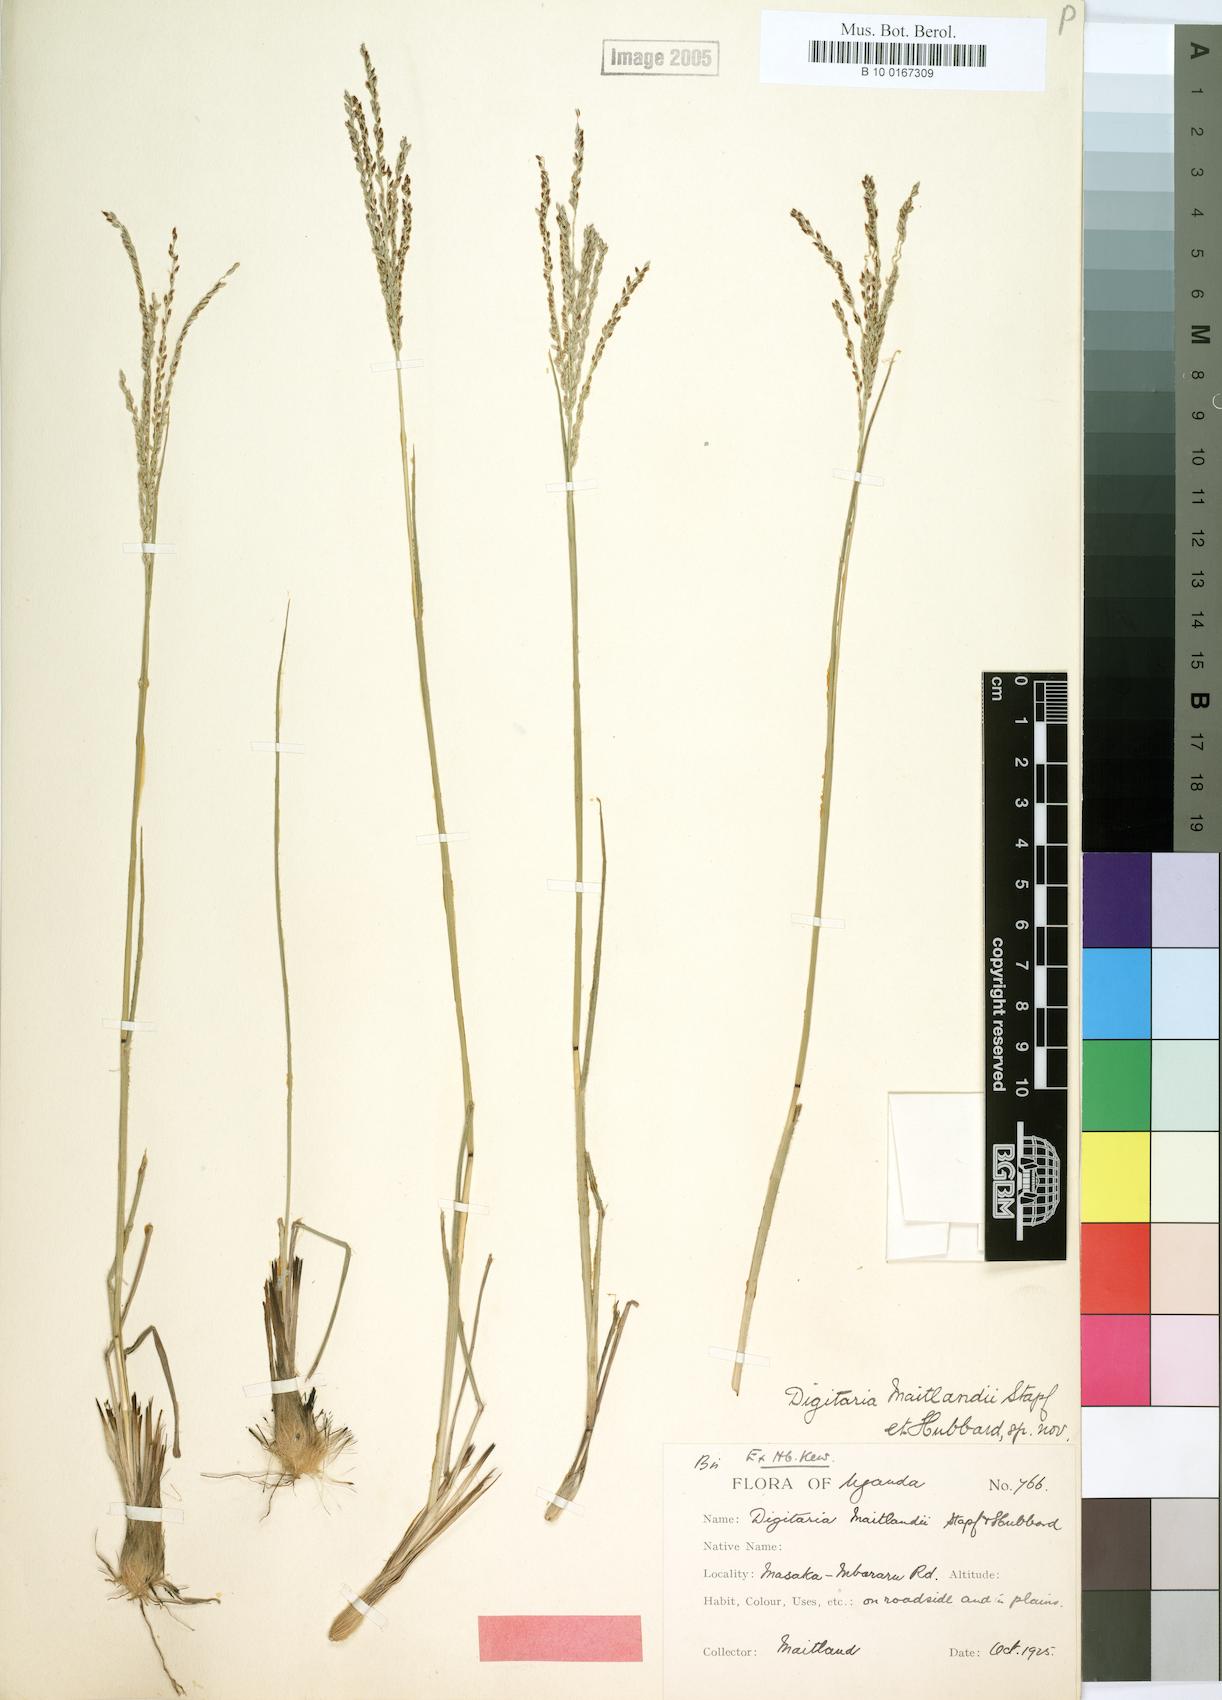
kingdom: Plantae
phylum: Tracheophyta
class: Liliopsida
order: Poales
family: Poaceae
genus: Digitaria
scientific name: Digitaria maitlandii
